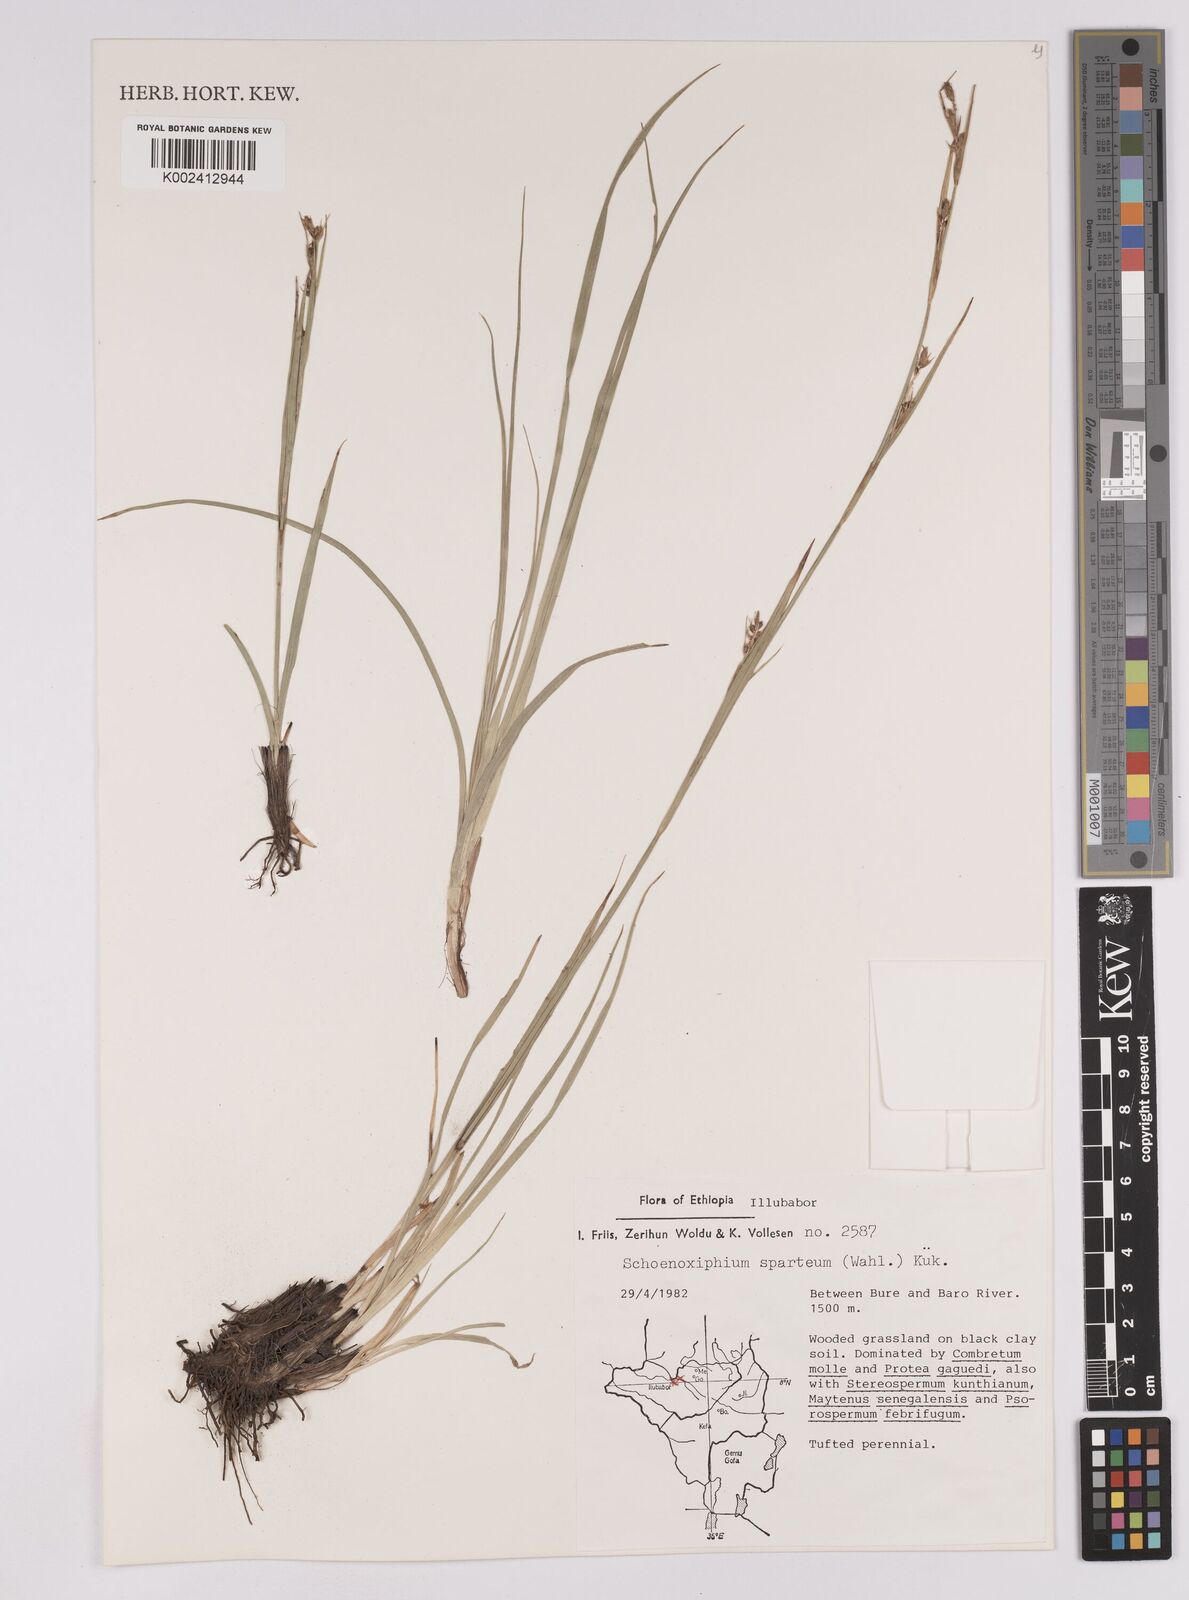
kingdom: Plantae
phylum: Tracheophyta
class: Liliopsida
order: Poales
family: Cyperaceae
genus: Carex
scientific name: Carex schimperiana
